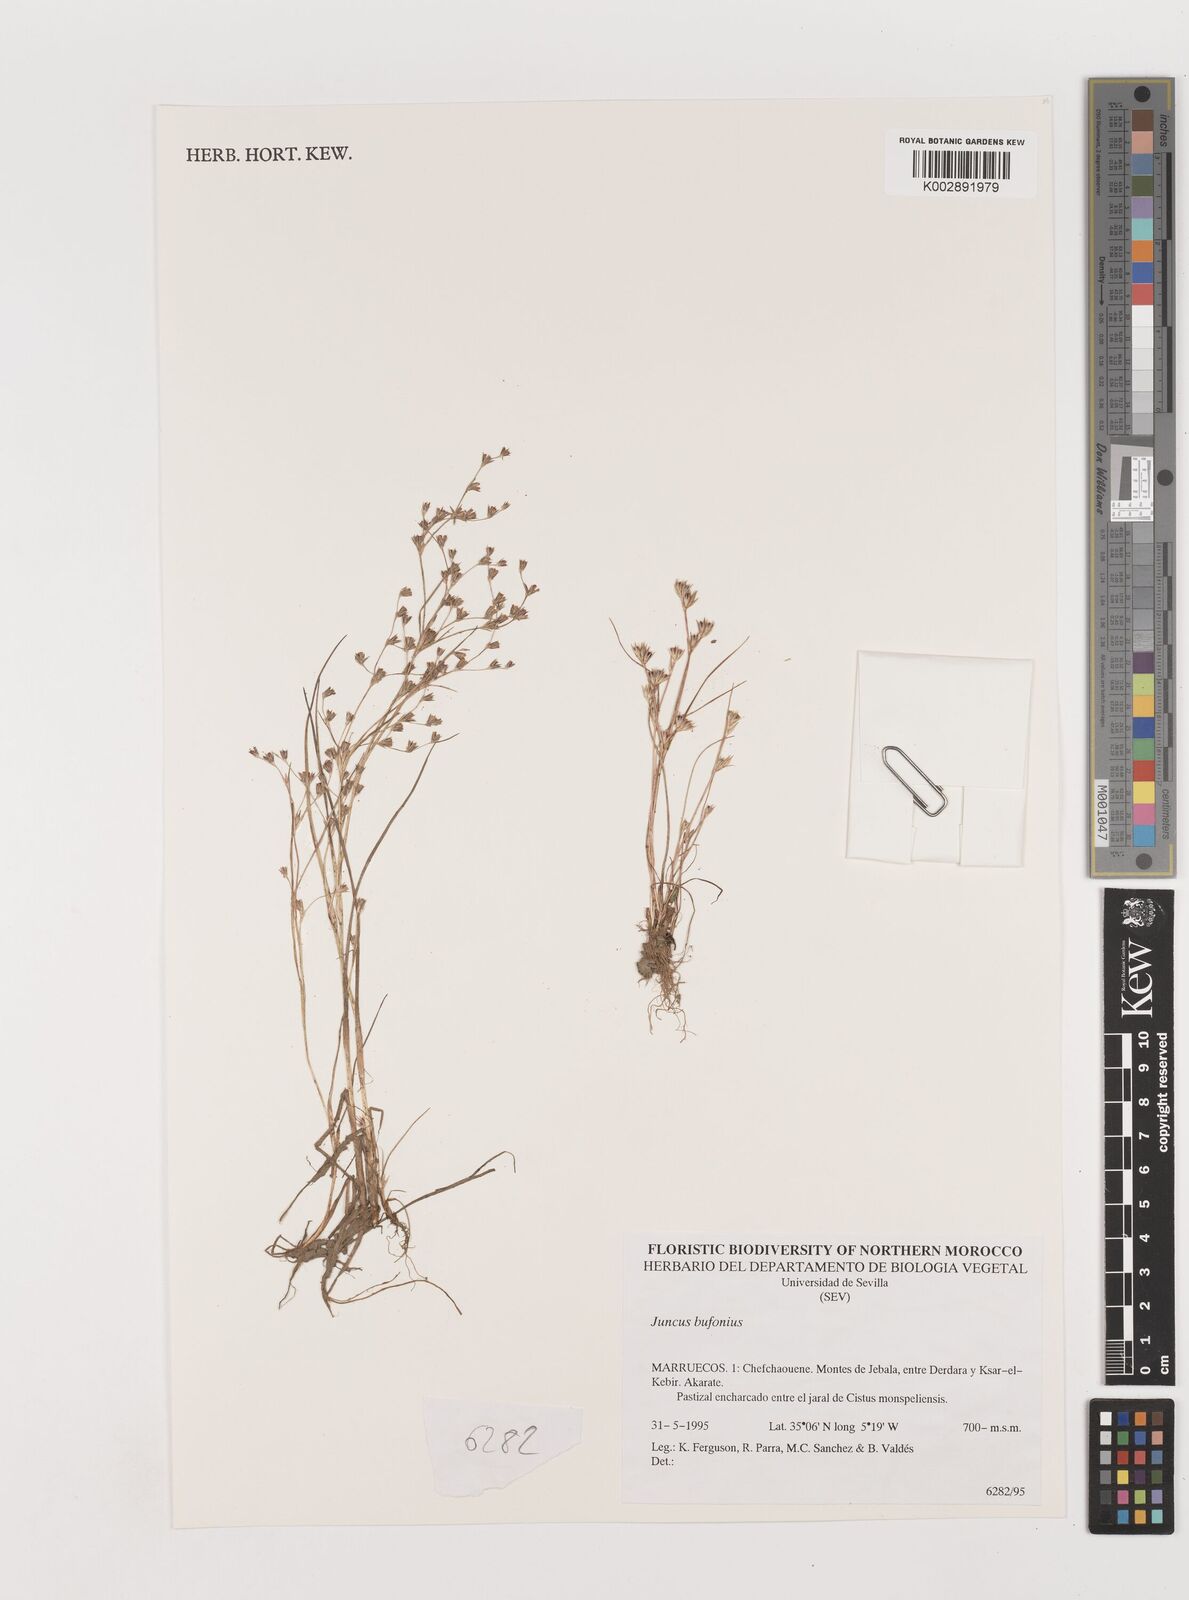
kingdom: Plantae
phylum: Tracheophyta
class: Liliopsida
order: Poales
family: Juncaceae
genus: Juncus
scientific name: Juncus bufonius
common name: Toad rush
